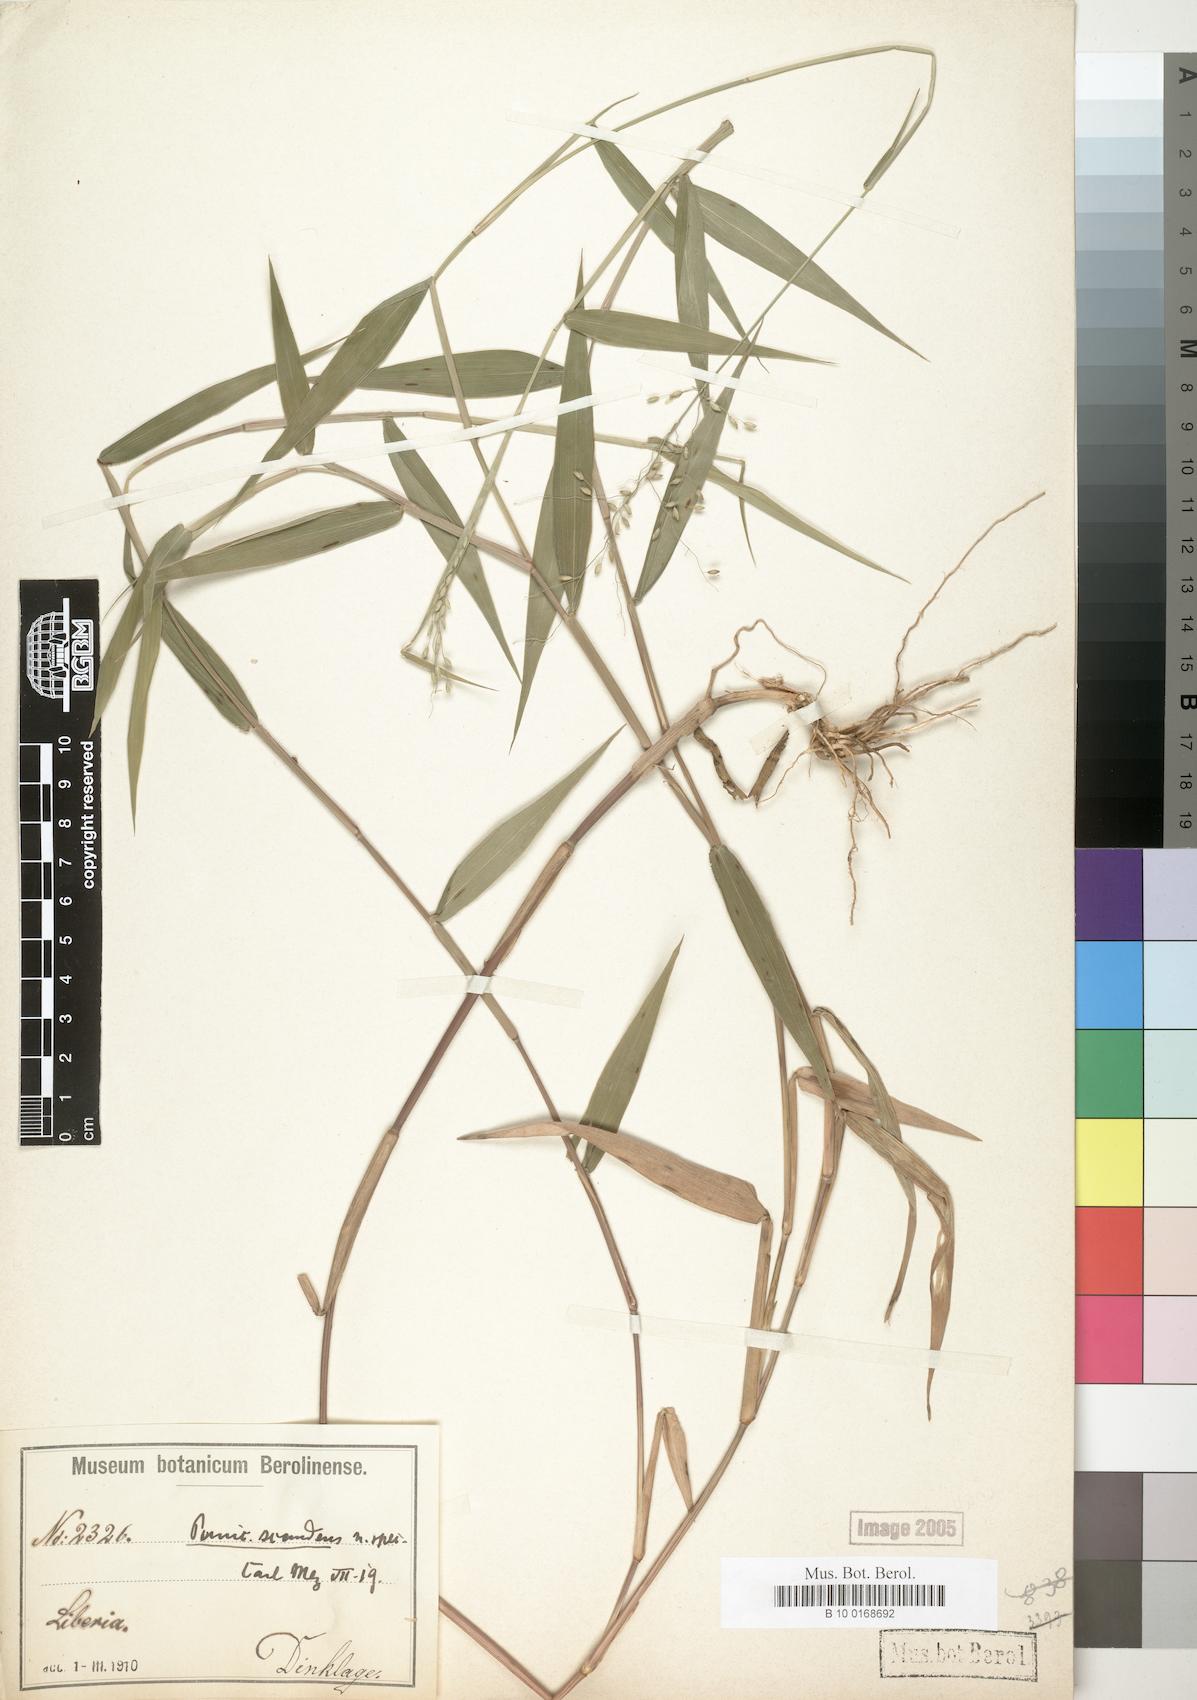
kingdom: Plantae
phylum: Tracheophyta
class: Liliopsida
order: Poales
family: Poaceae
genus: Adenochloa
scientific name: Adenochloa sadinii
